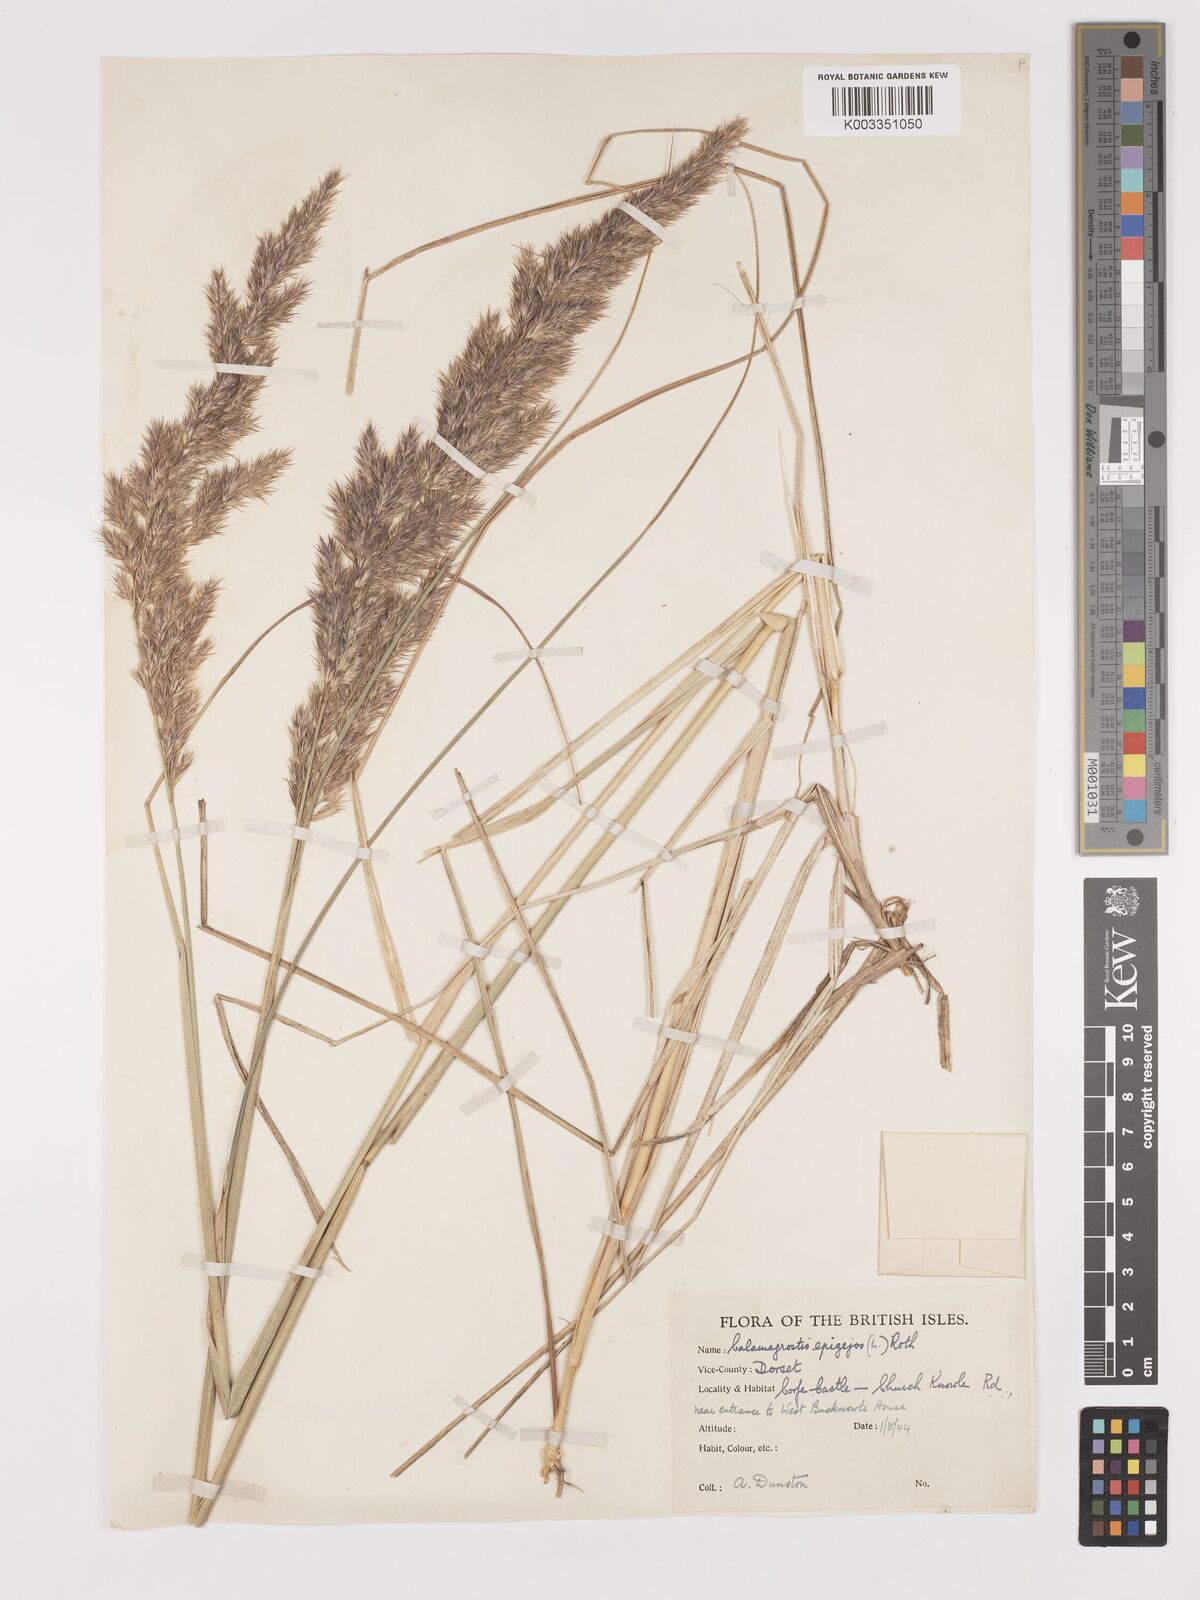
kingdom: Plantae
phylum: Tracheophyta
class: Liliopsida
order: Poales
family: Poaceae
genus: Calamagrostis
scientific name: Calamagrostis epigejos
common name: Wood small-reed
